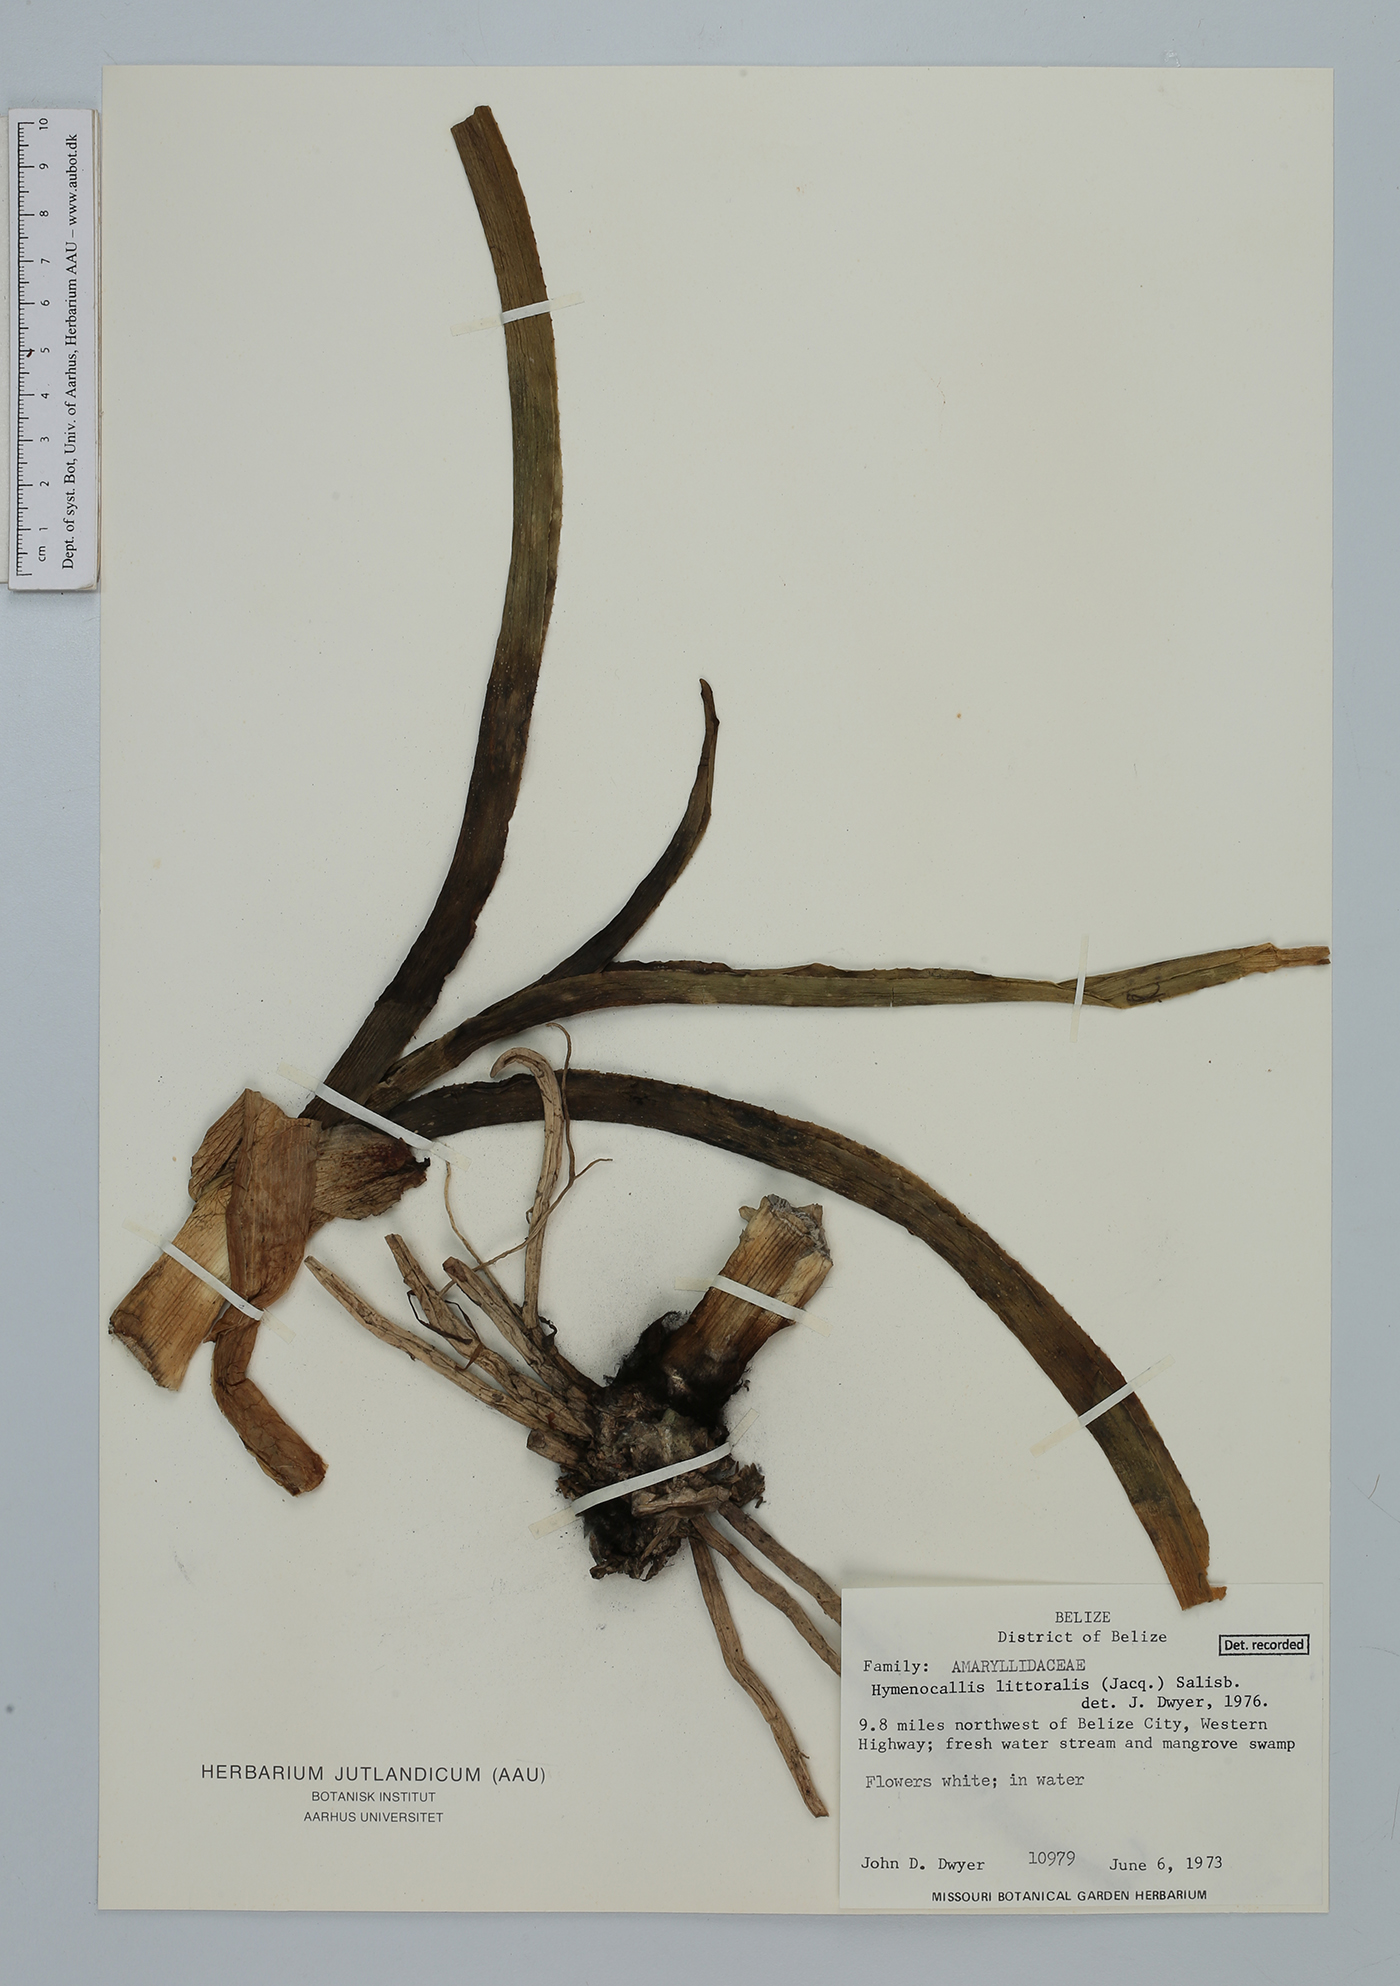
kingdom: Plantae
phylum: Tracheophyta
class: Liliopsida
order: Asparagales
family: Amaryllidaceae
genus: Hymenocallis
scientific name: Hymenocallis littoralis
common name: Beach spiderlily
